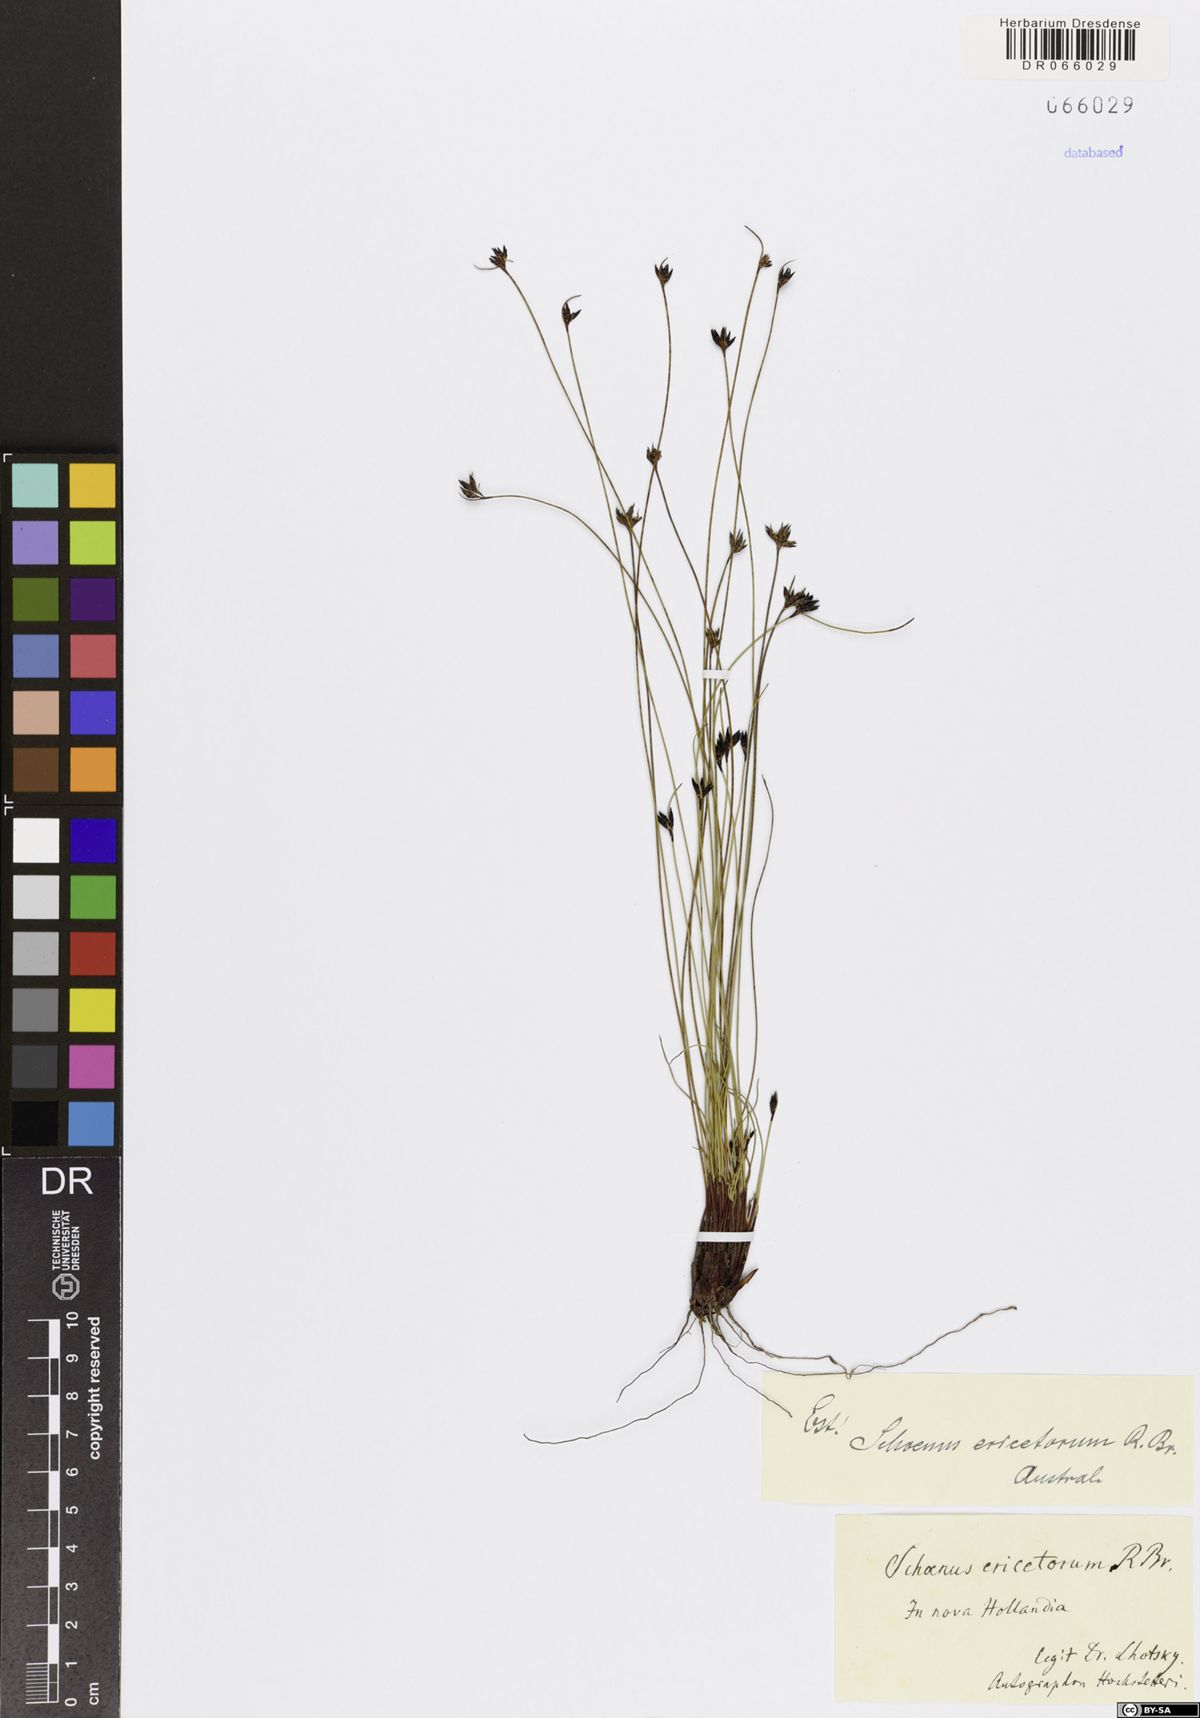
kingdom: Plantae
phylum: Tracheophyta
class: Liliopsida
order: Poales
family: Cyperaceae
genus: Schoenus
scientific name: Schoenus ericetorum
